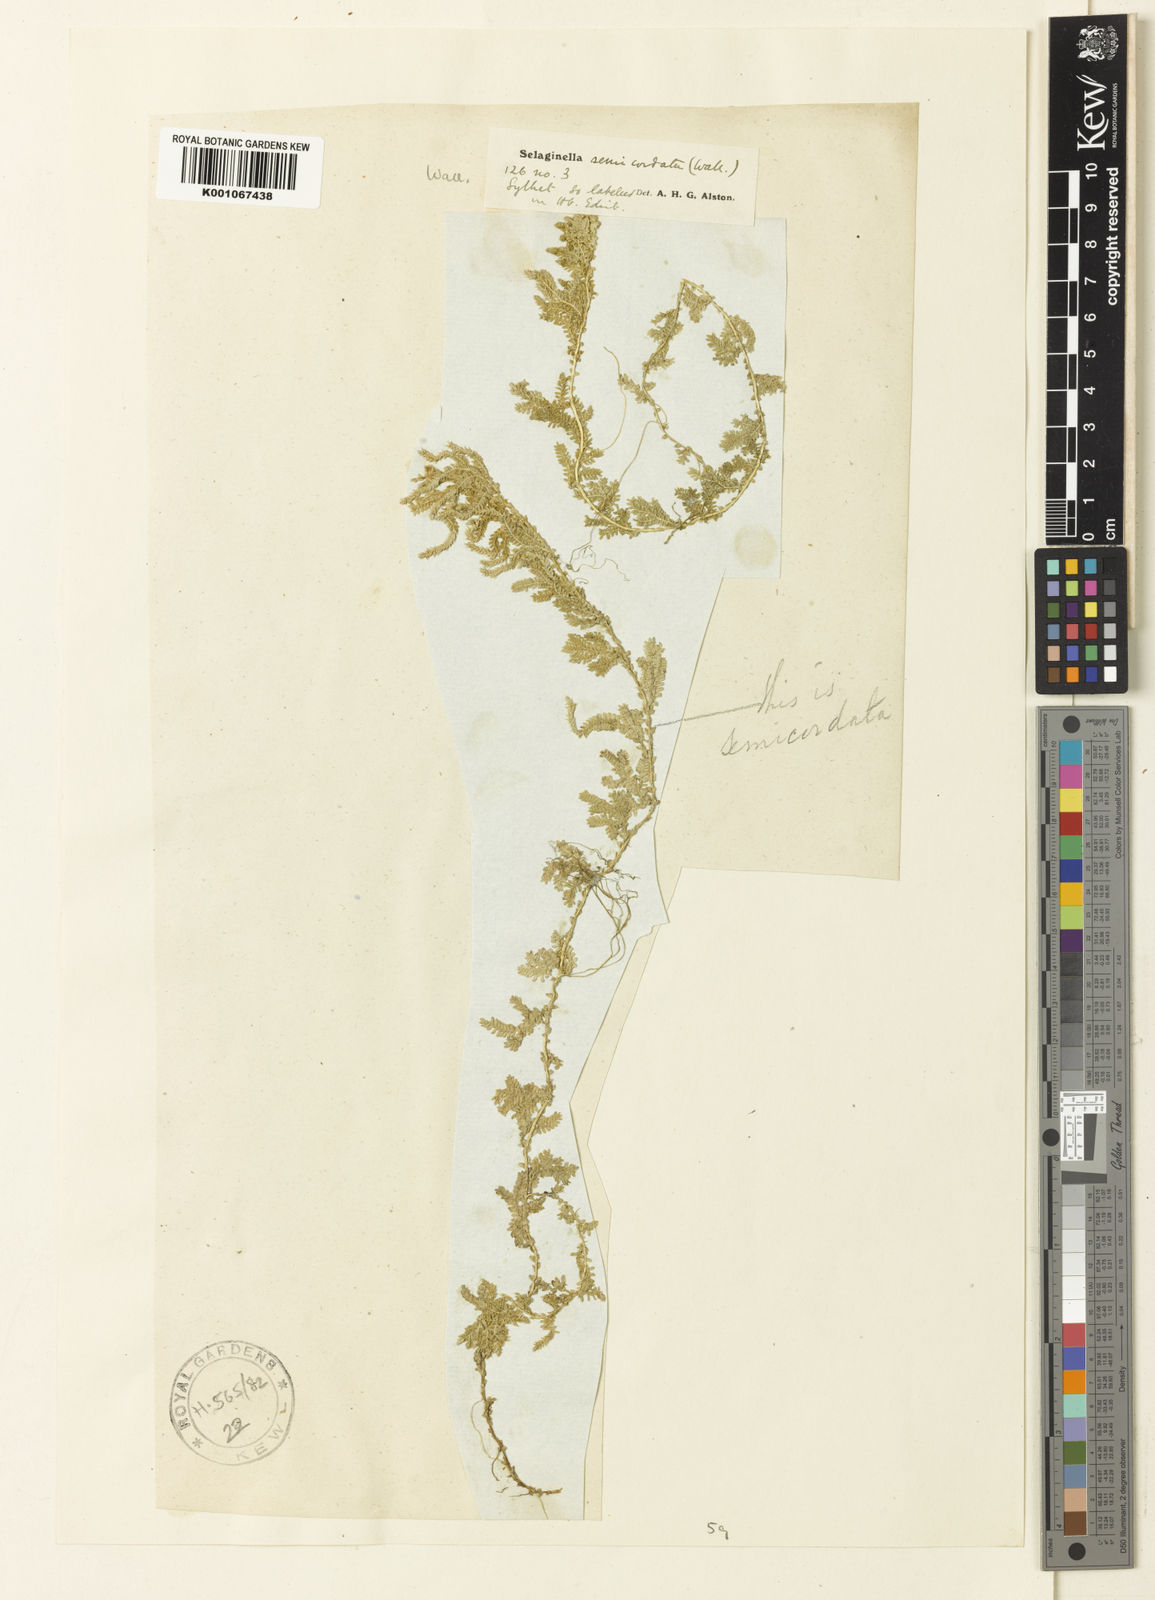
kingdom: Plantae
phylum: Tracheophyta
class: Lycopodiopsida
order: Selaginellales
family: Selaginellaceae
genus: Selaginella
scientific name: Selaginella semicordata
